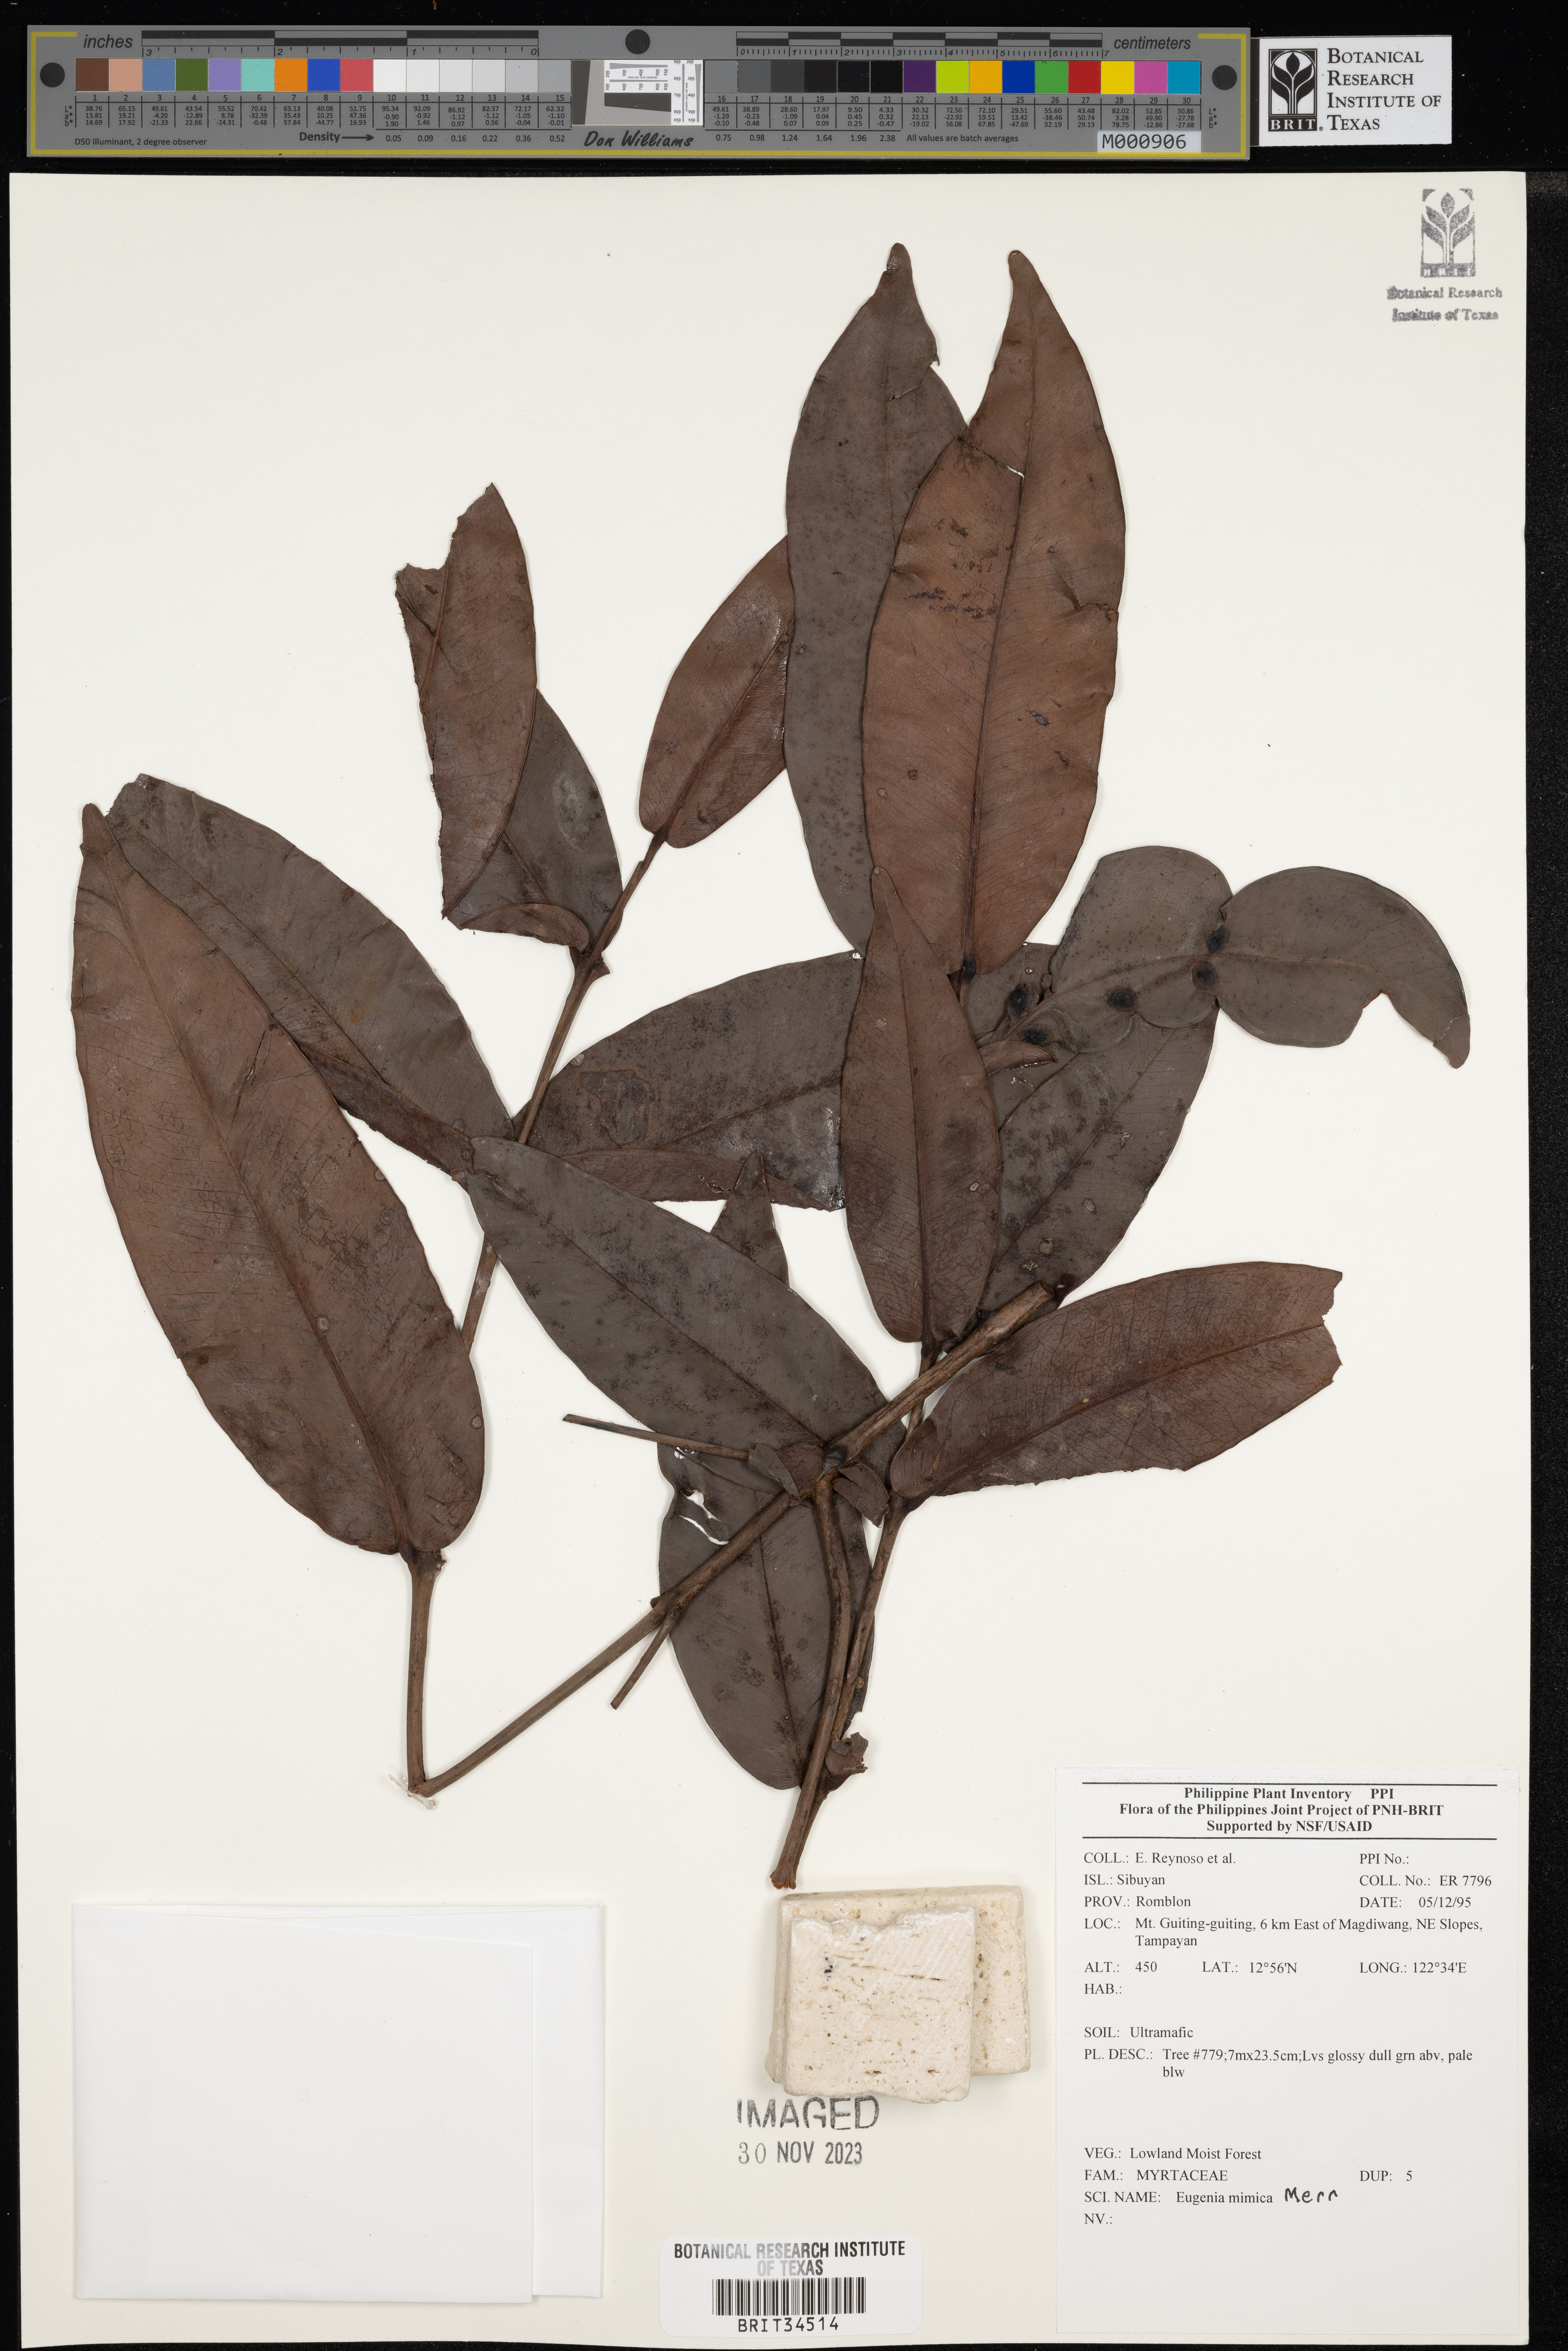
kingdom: Plantae
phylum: Tracheophyta
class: Magnoliopsida
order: Myrtales
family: Myrtaceae
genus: Eugenia
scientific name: Eugenia
